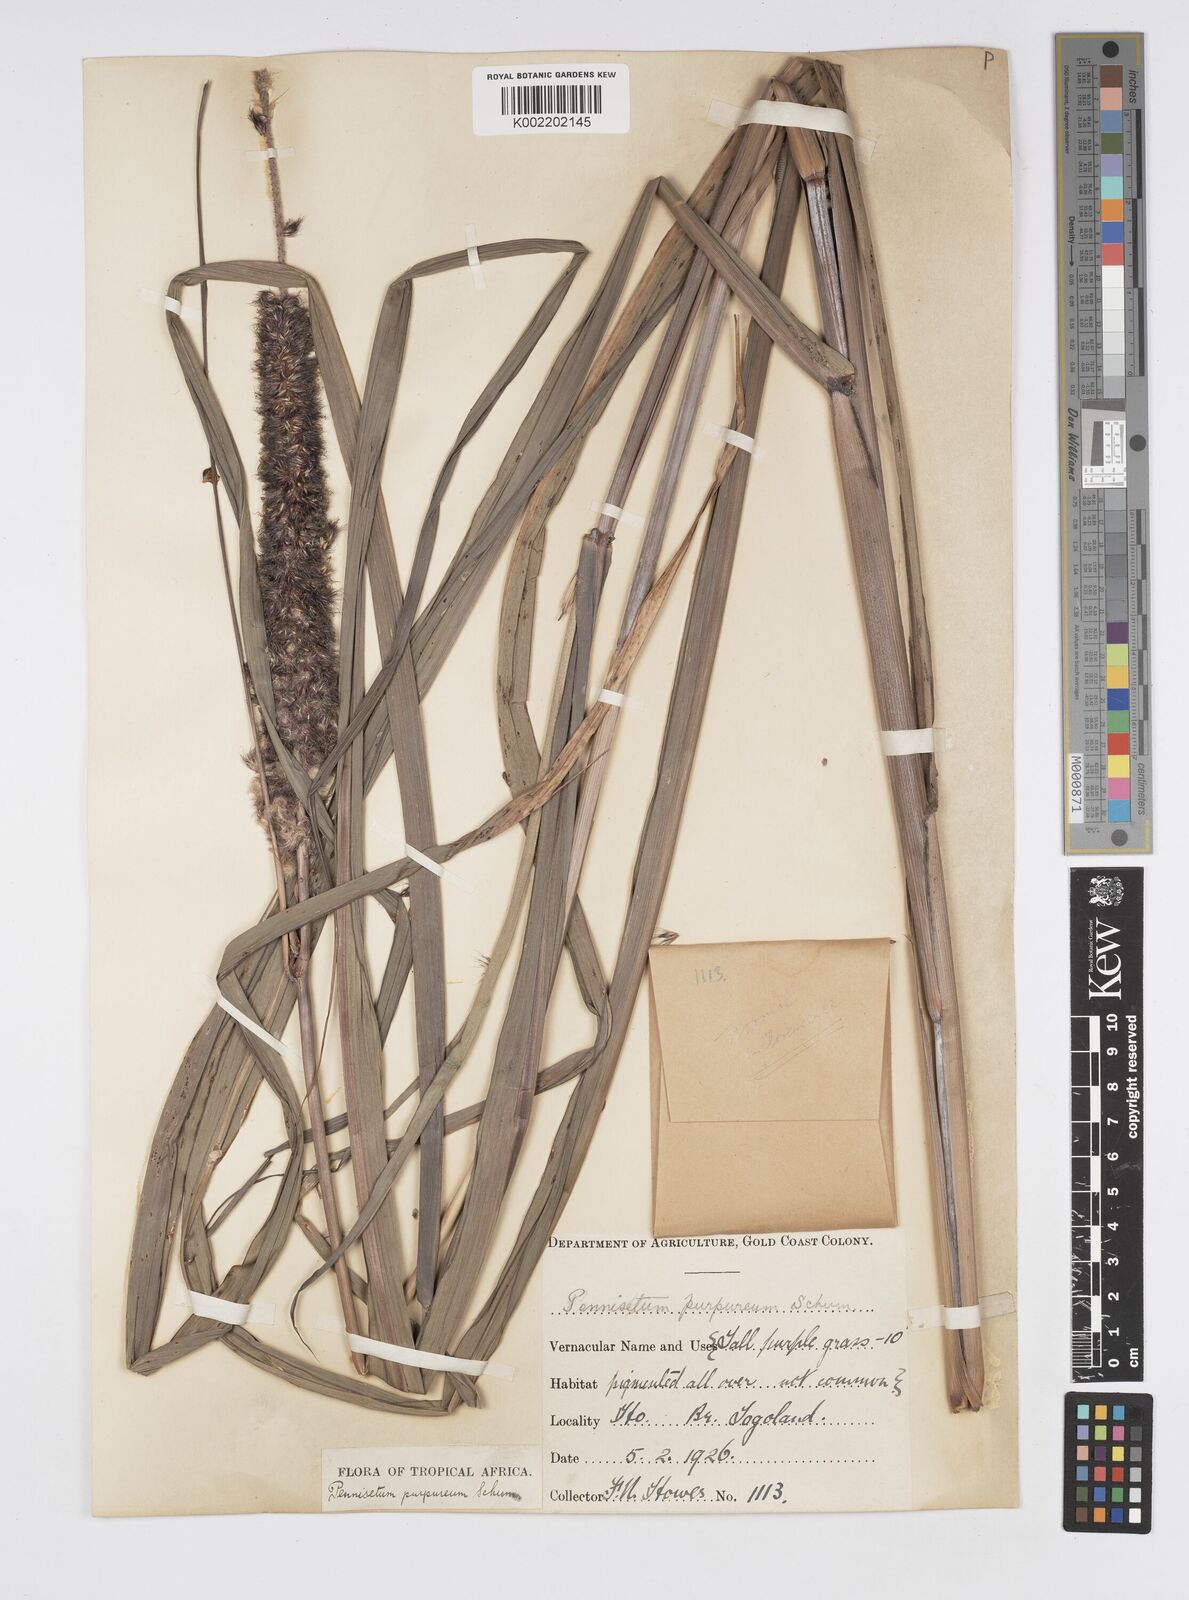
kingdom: Plantae
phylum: Tracheophyta
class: Liliopsida
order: Poales
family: Poaceae
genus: Cenchrus
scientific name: Cenchrus purpureus
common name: Elephant grass
